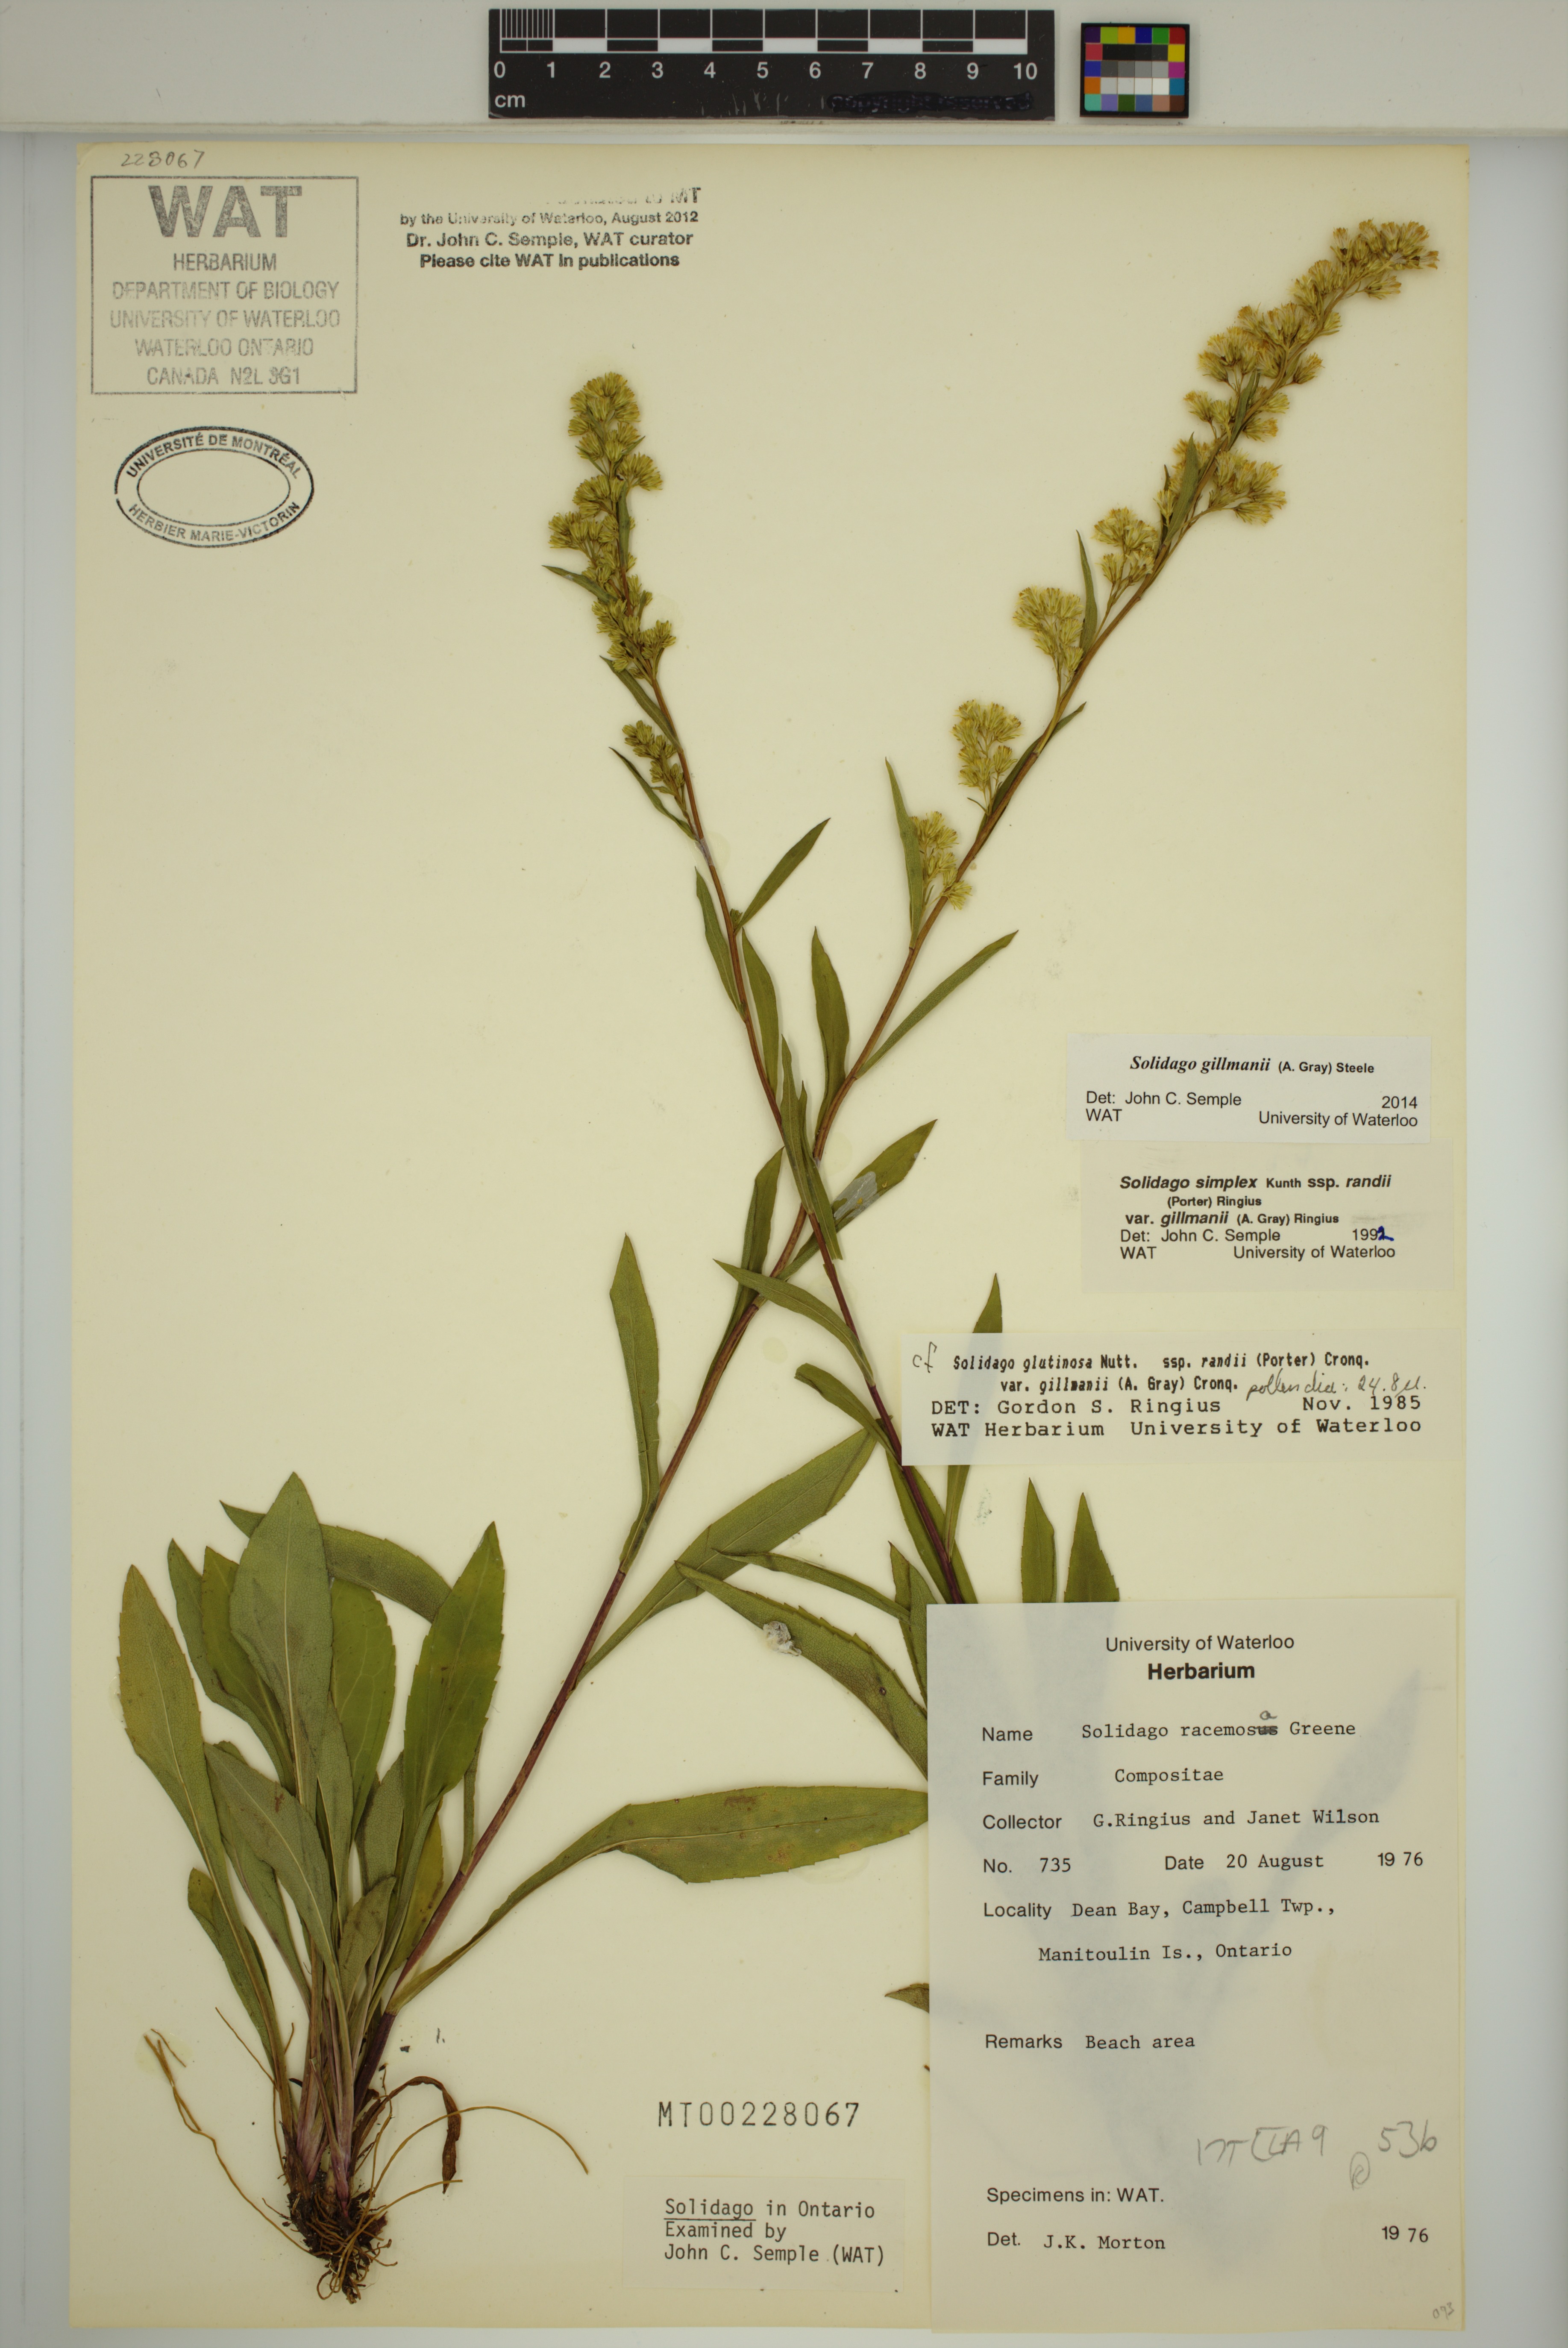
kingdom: Plantae
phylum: Tracheophyta
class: Magnoliopsida
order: Asterales
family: Asteraceae
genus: Solidago
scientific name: Solidago gillmanii
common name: Gillman's goldenrod
